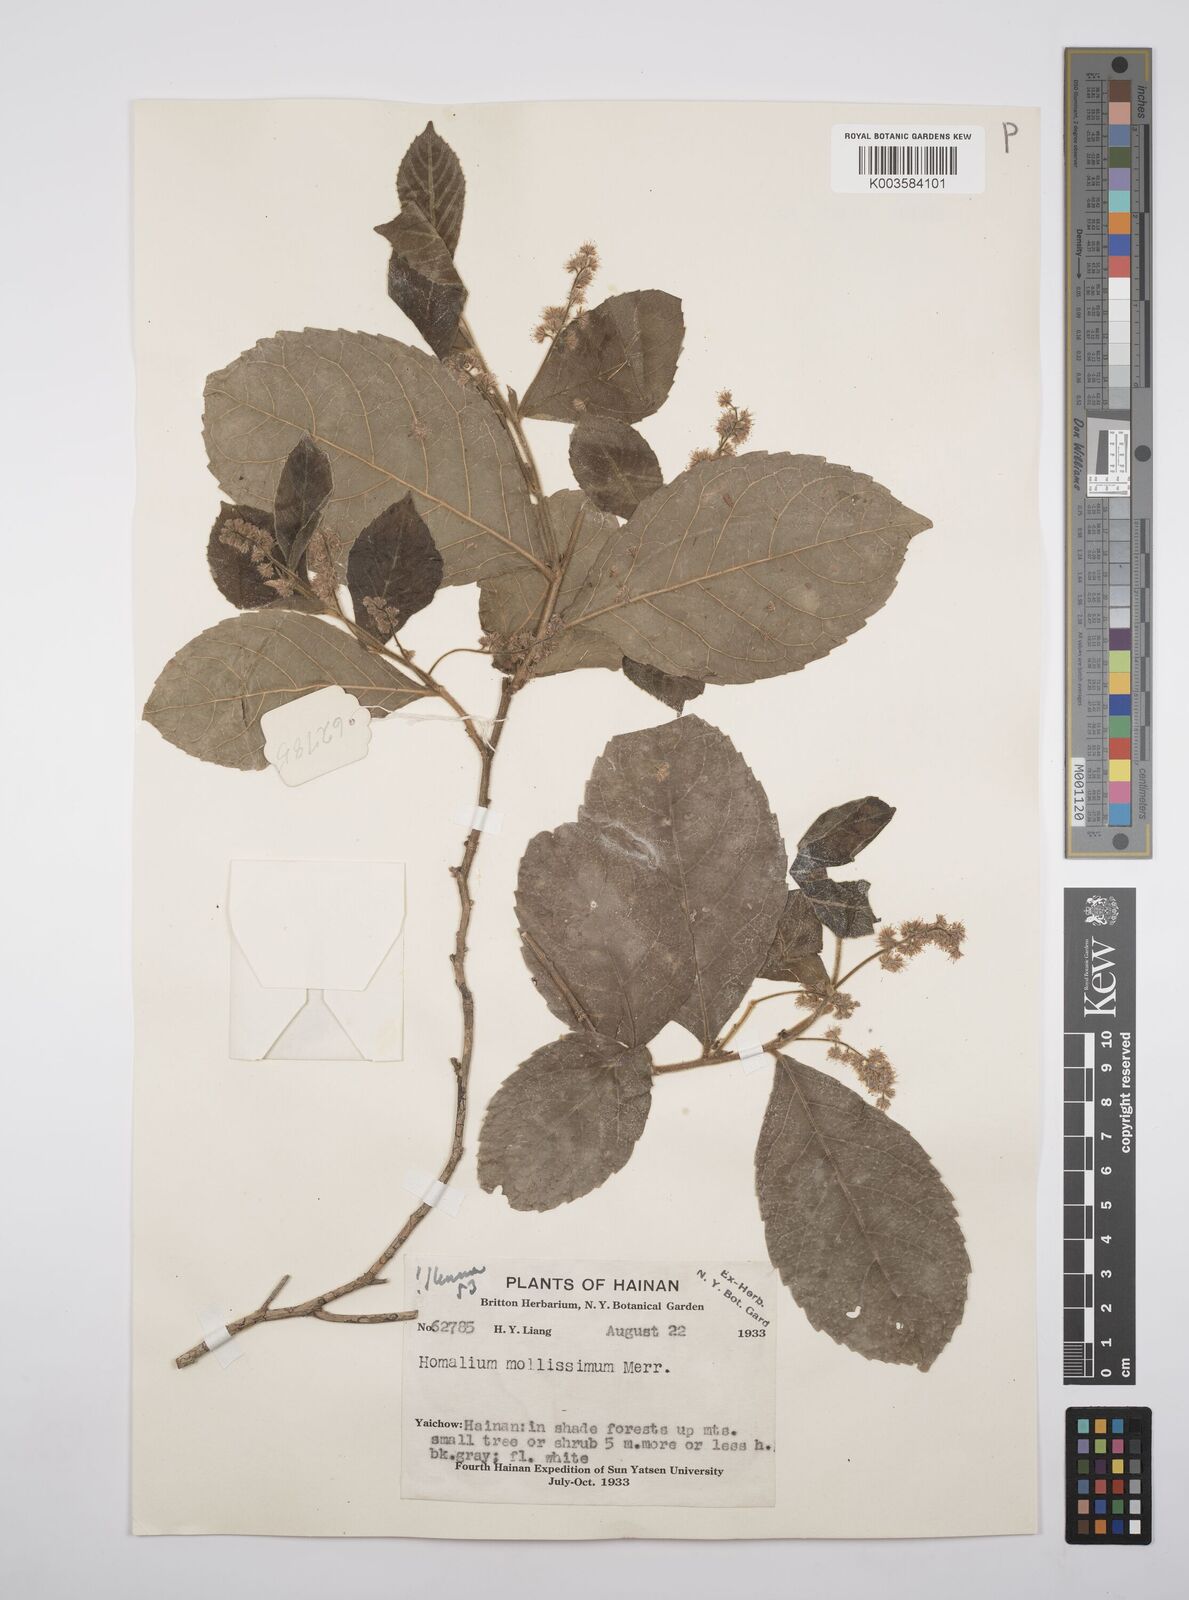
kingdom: Plantae
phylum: Tracheophyta
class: Magnoliopsida
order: Malpighiales
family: Salicaceae
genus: Homalium
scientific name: Homalium mollissimum
